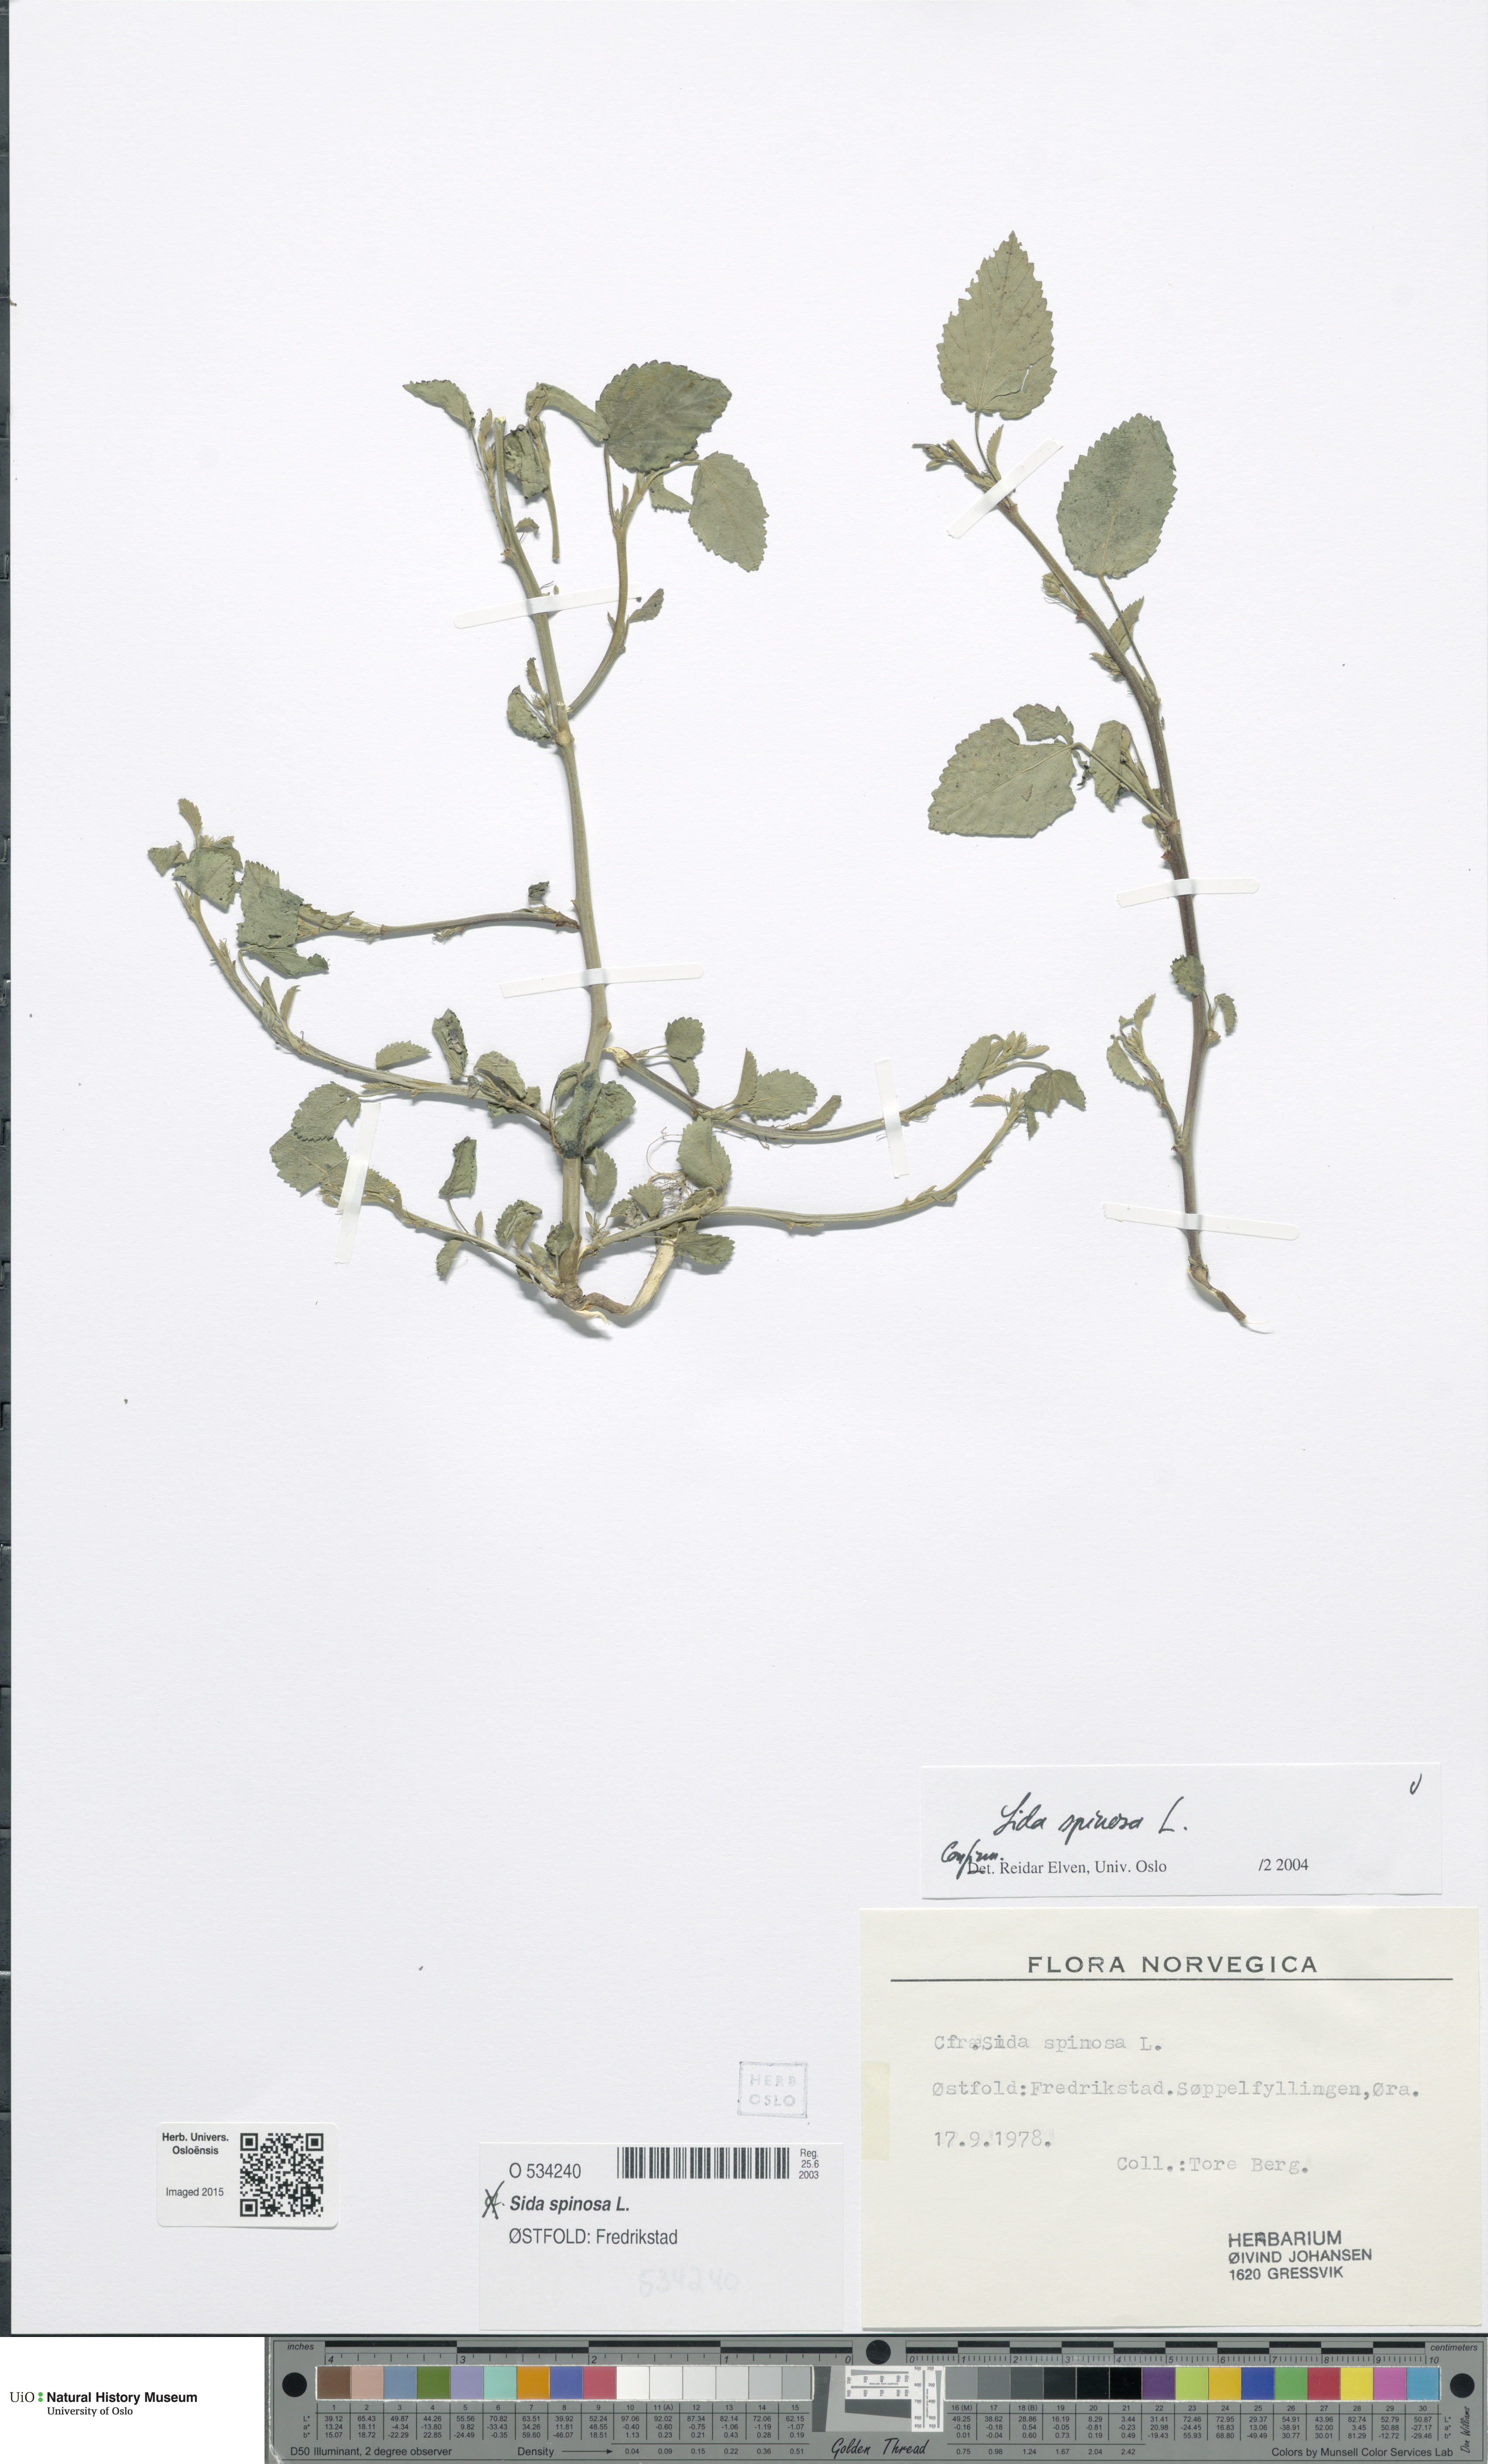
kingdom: Plantae
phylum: Tracheophyta
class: Magnoliopsida
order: Malvales
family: Malvaceae
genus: Sida
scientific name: Sida spinosa
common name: Prickly fanpetals
